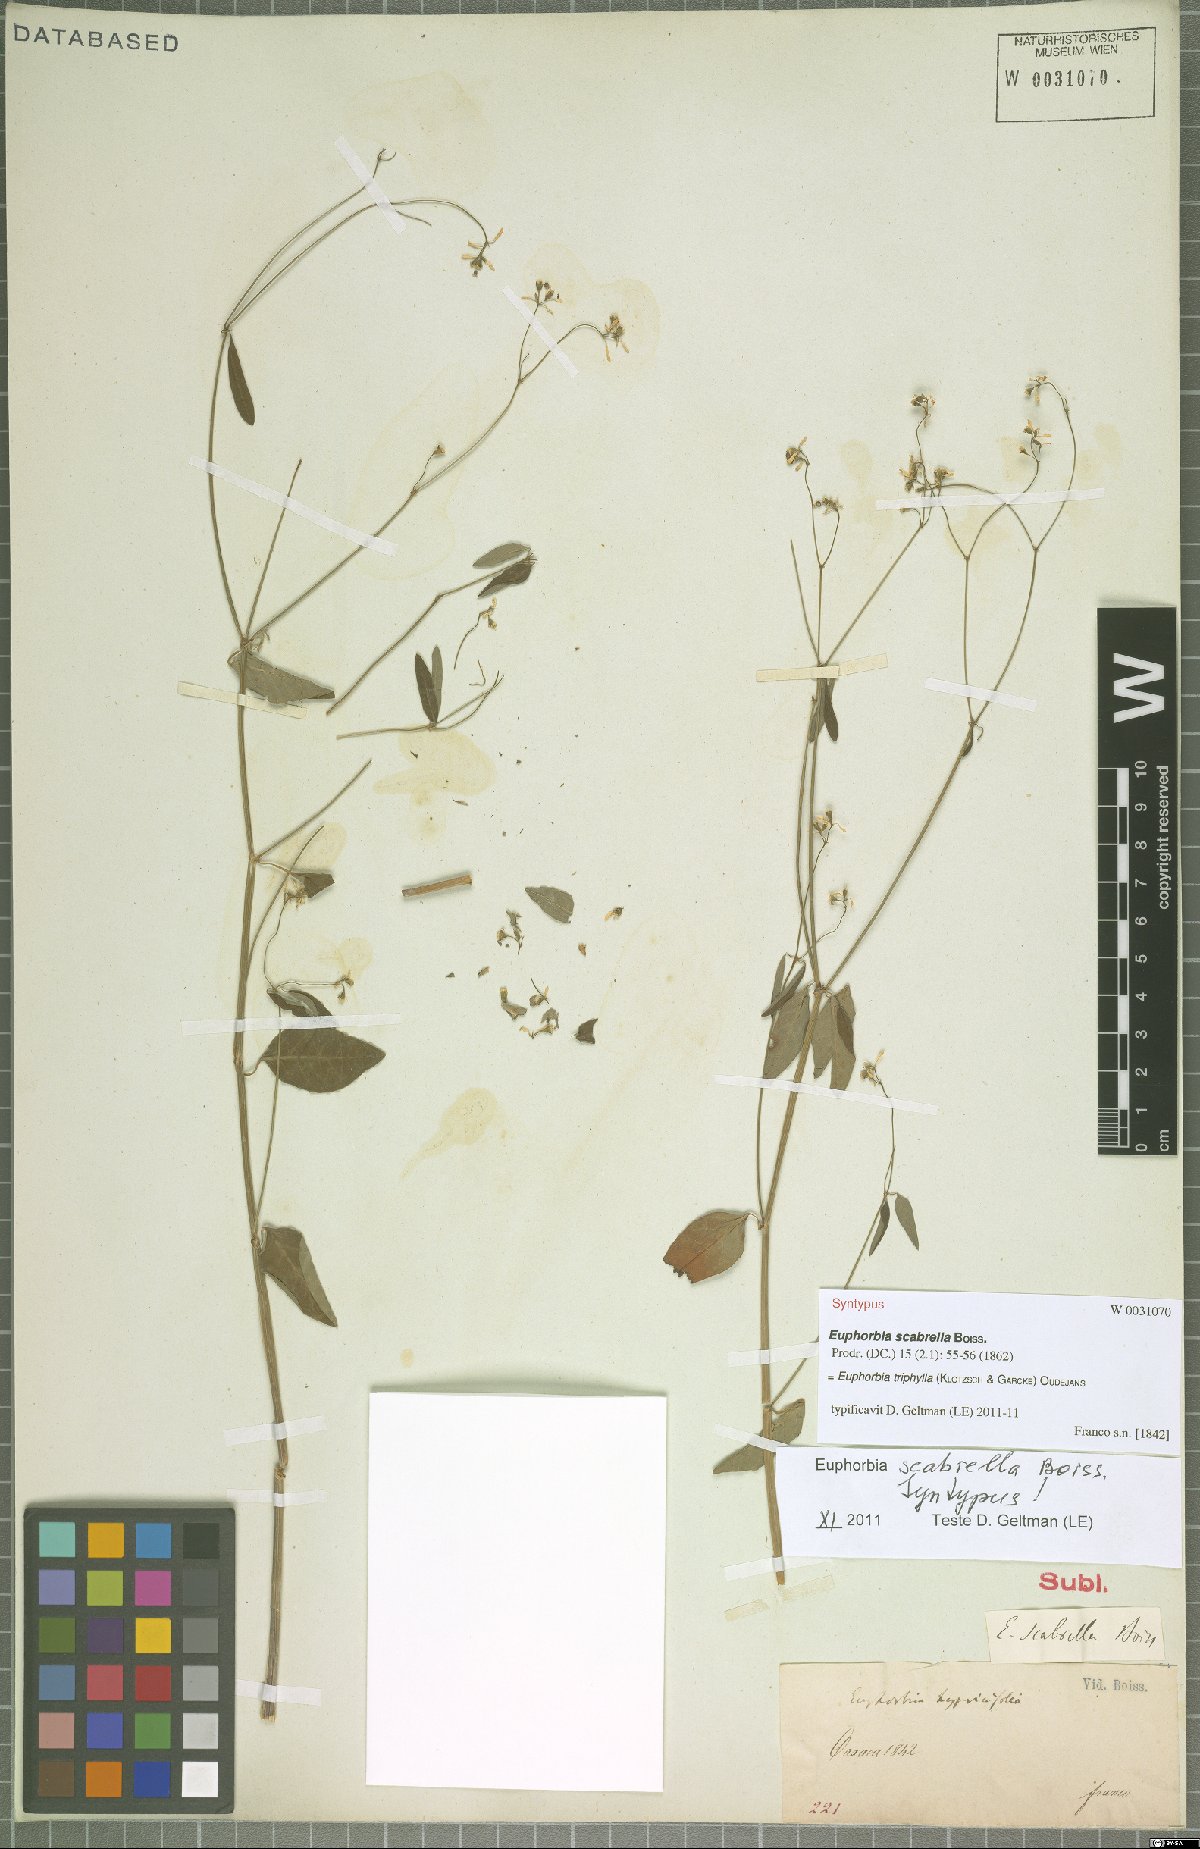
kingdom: Plantae
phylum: Tracheophyta
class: Magnoliopsida
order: Malpighiales
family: Euphorbiaceae
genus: Euphorbia
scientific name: Euphorbia triphylla
